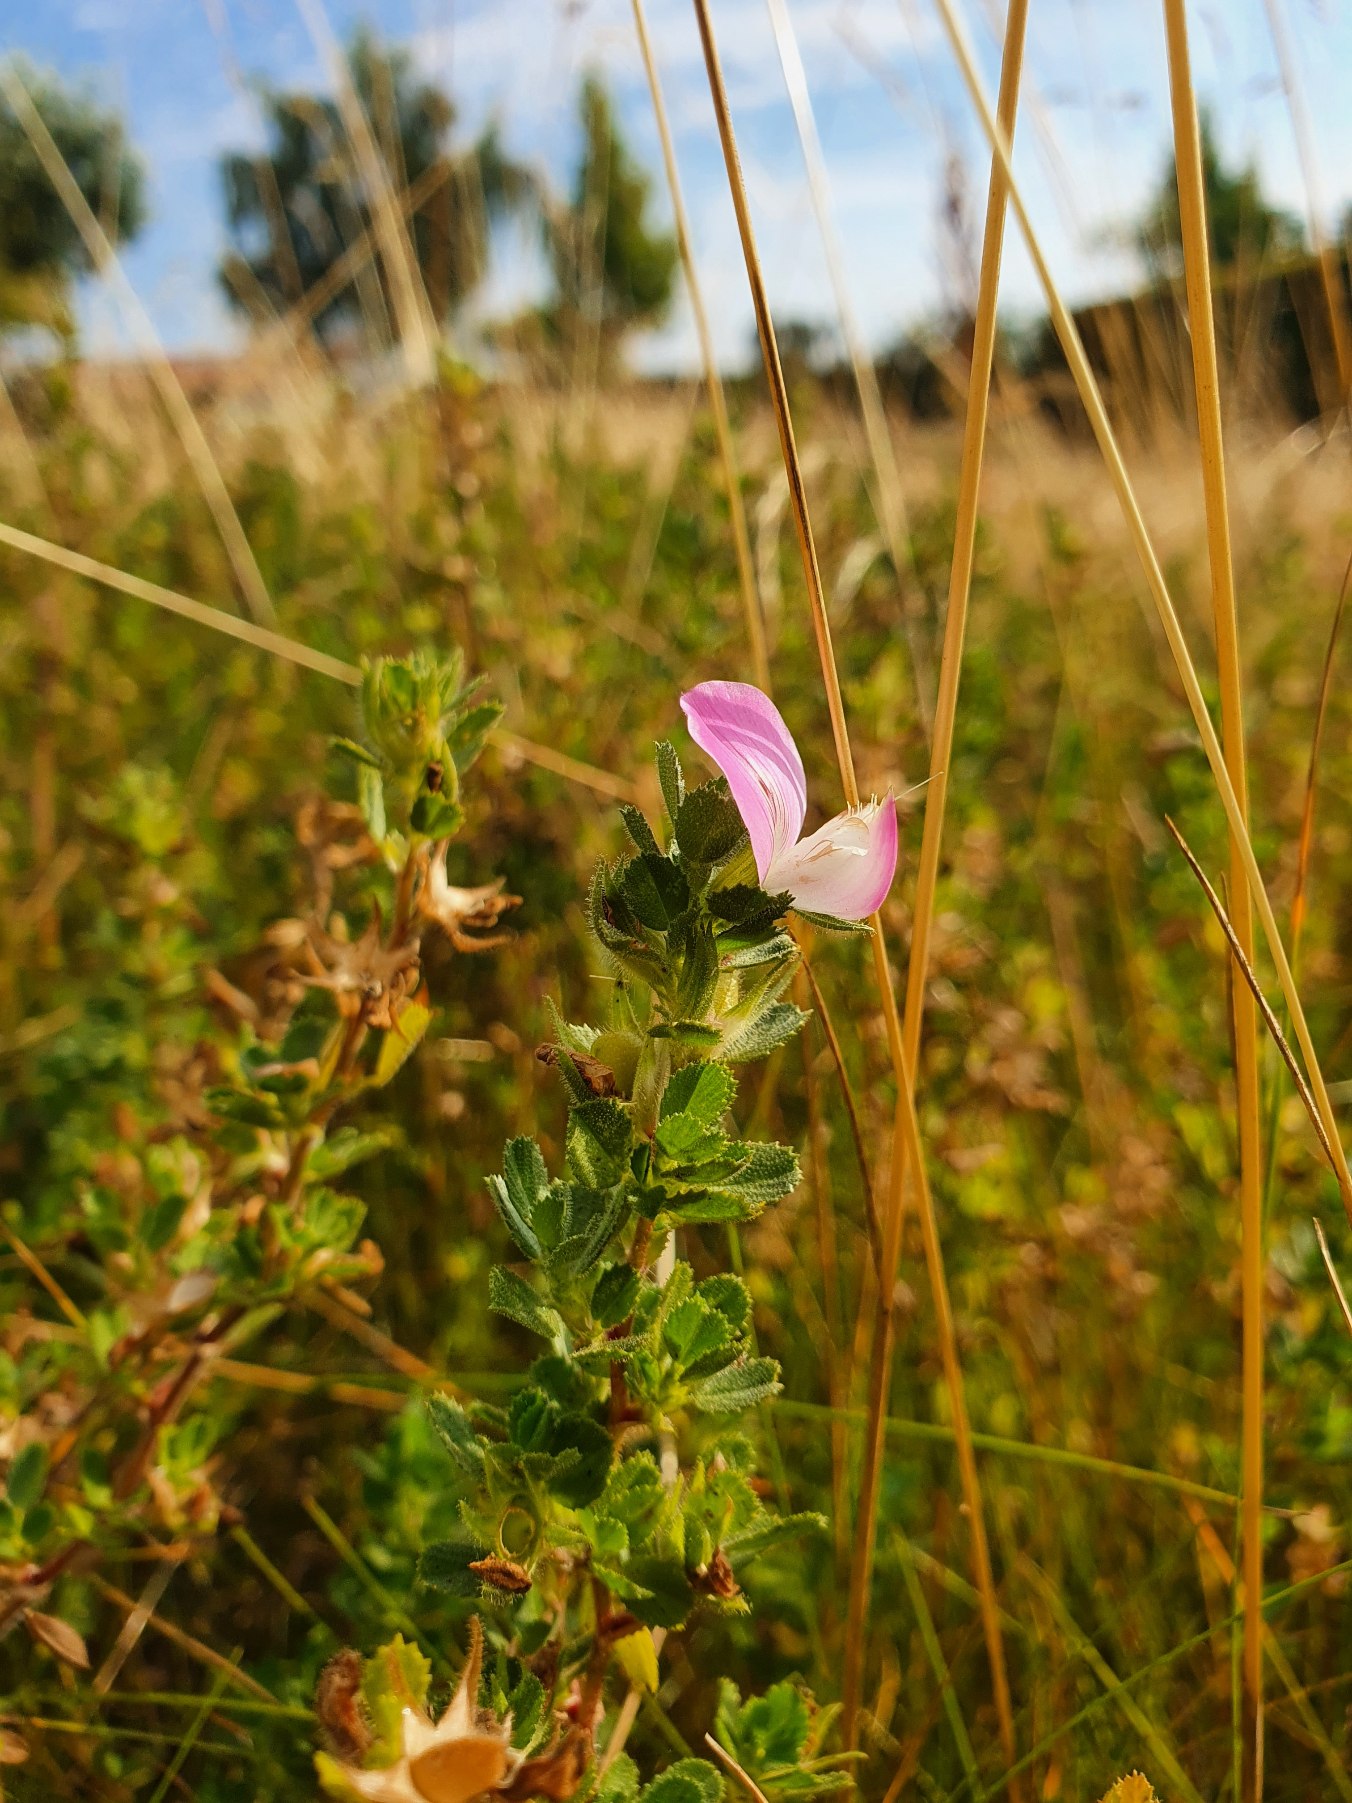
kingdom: Plantae
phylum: Tracheophyta
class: Magnoliopsida
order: Fabales
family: Fabaceae
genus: Ononis
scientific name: Ononis spinosa
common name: Mark-krageklo
